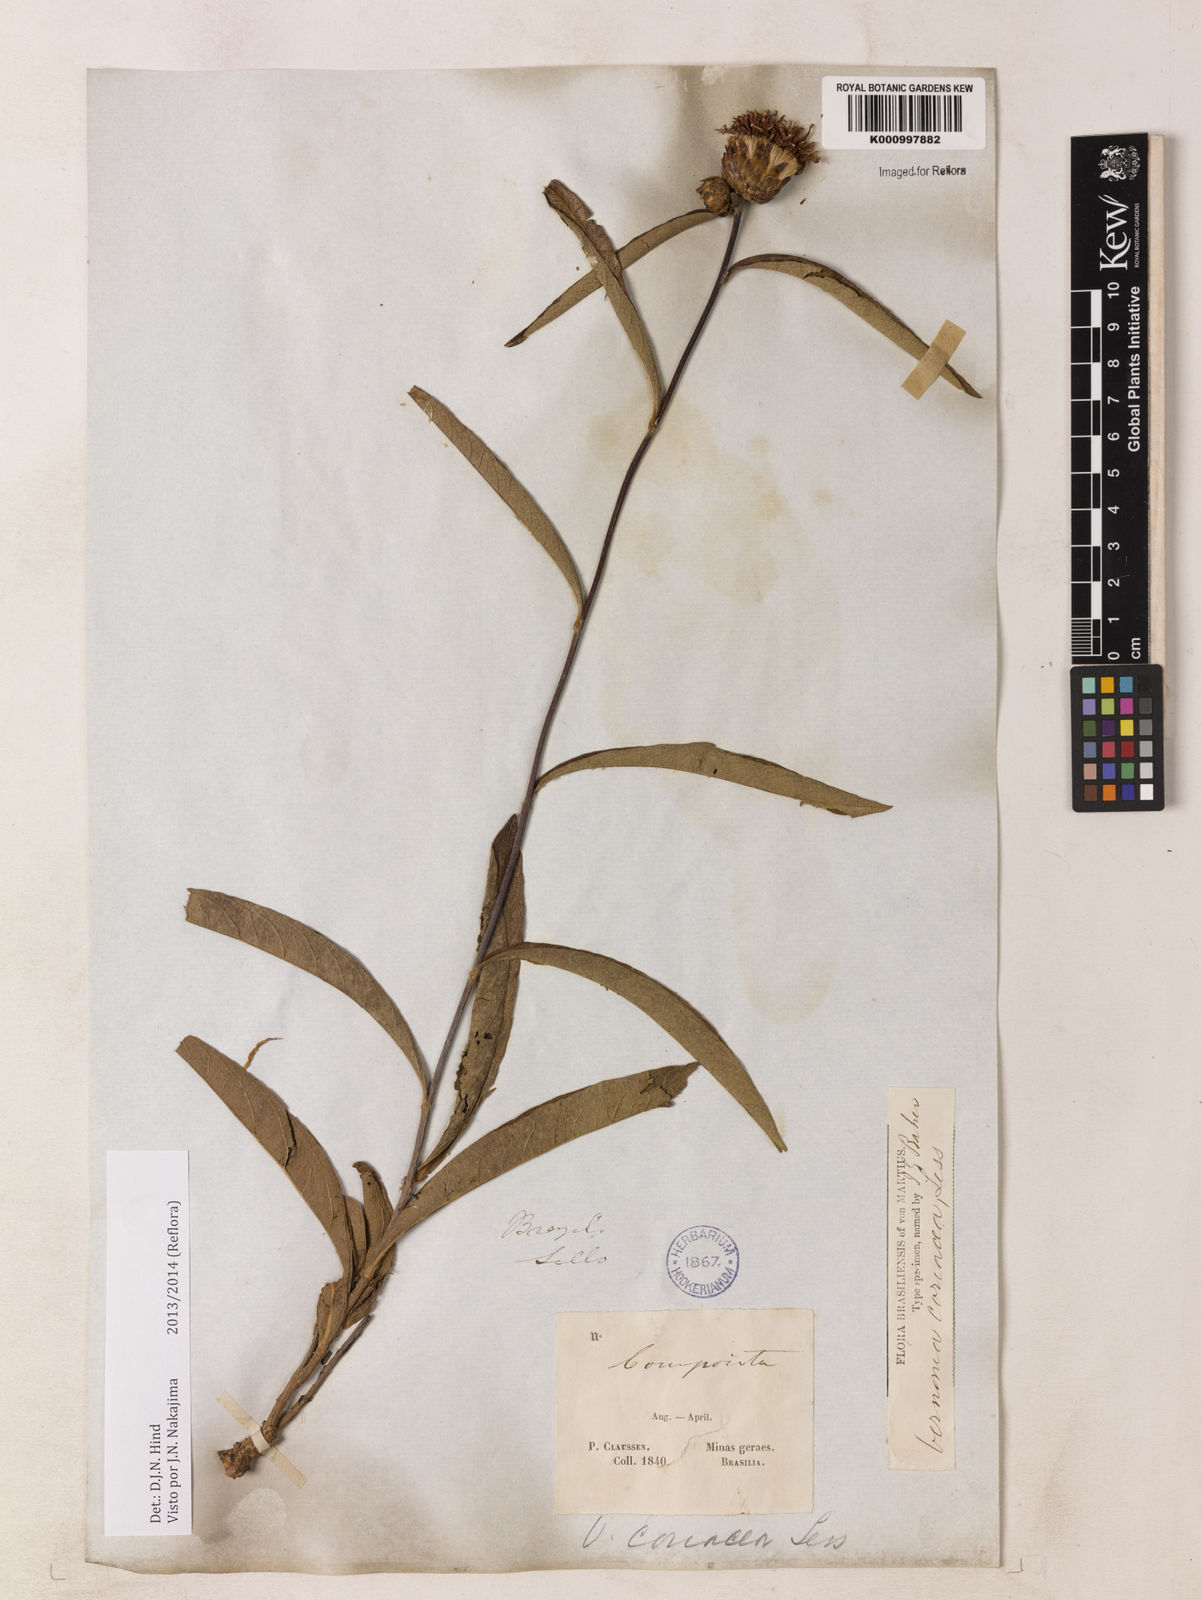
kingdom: Plantae
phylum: Tracheophyta
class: Magnoliopsida
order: Asterales
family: Asteraceae
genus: Lessingianthus
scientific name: Lessingianthus coriaceus
